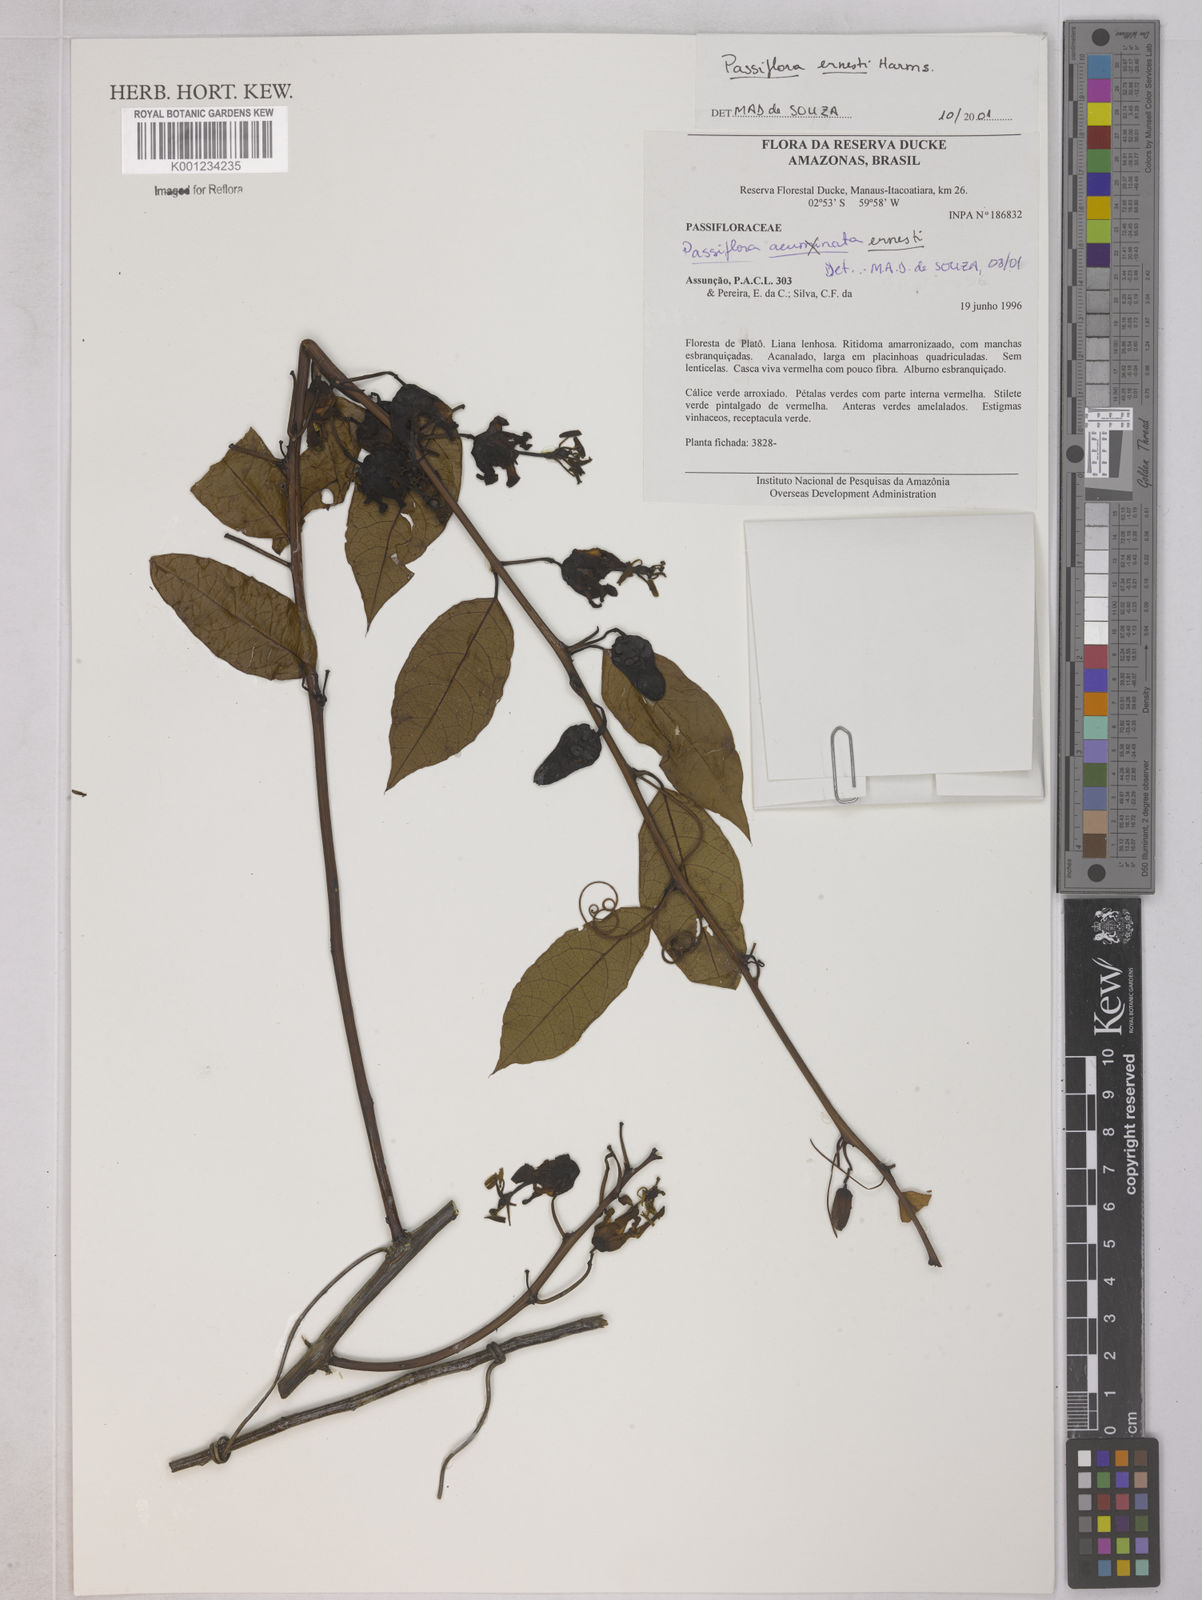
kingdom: Plantae
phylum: Tracheophyta
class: Magnoliopsida
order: Malpighiales
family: Passifloraceae
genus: Passiflora
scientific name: Passiflora ernestii
